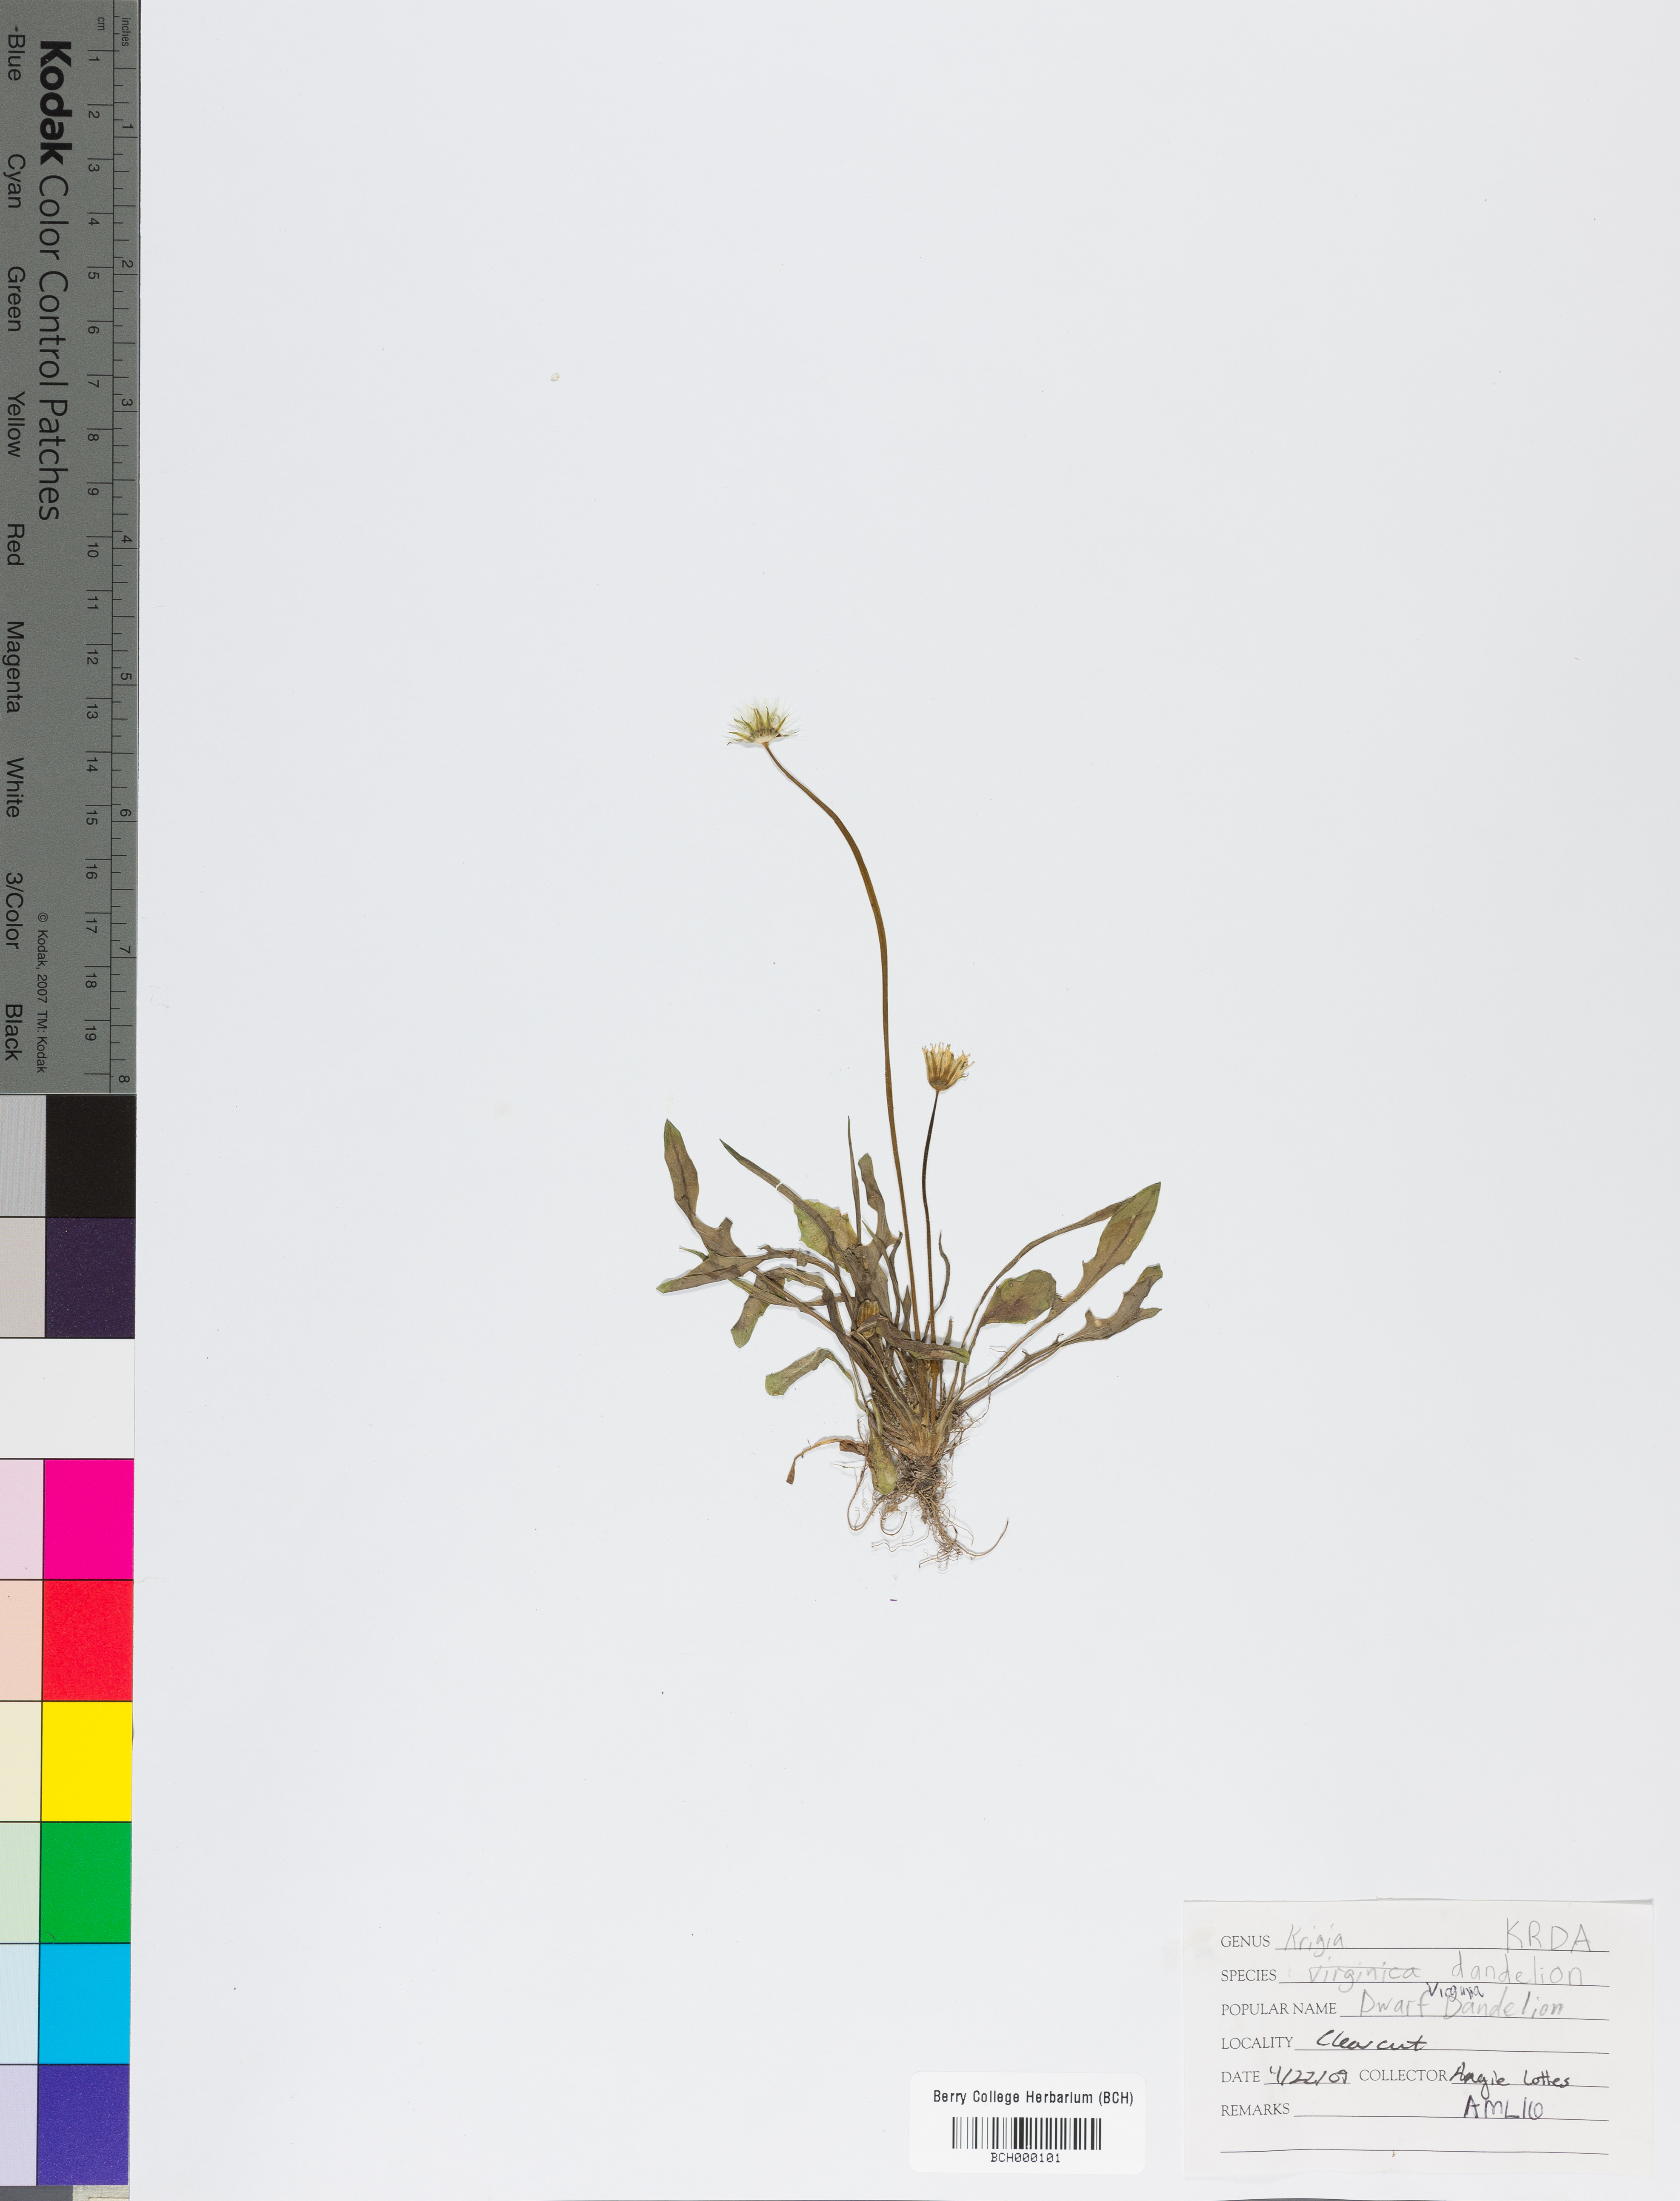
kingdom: Plantae
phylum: Tracheophyta
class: Magnoliopsida
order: Asterales
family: Asteraceae
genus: Krigia
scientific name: Krigia dandelion
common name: Colonial dwarf-dandelion
